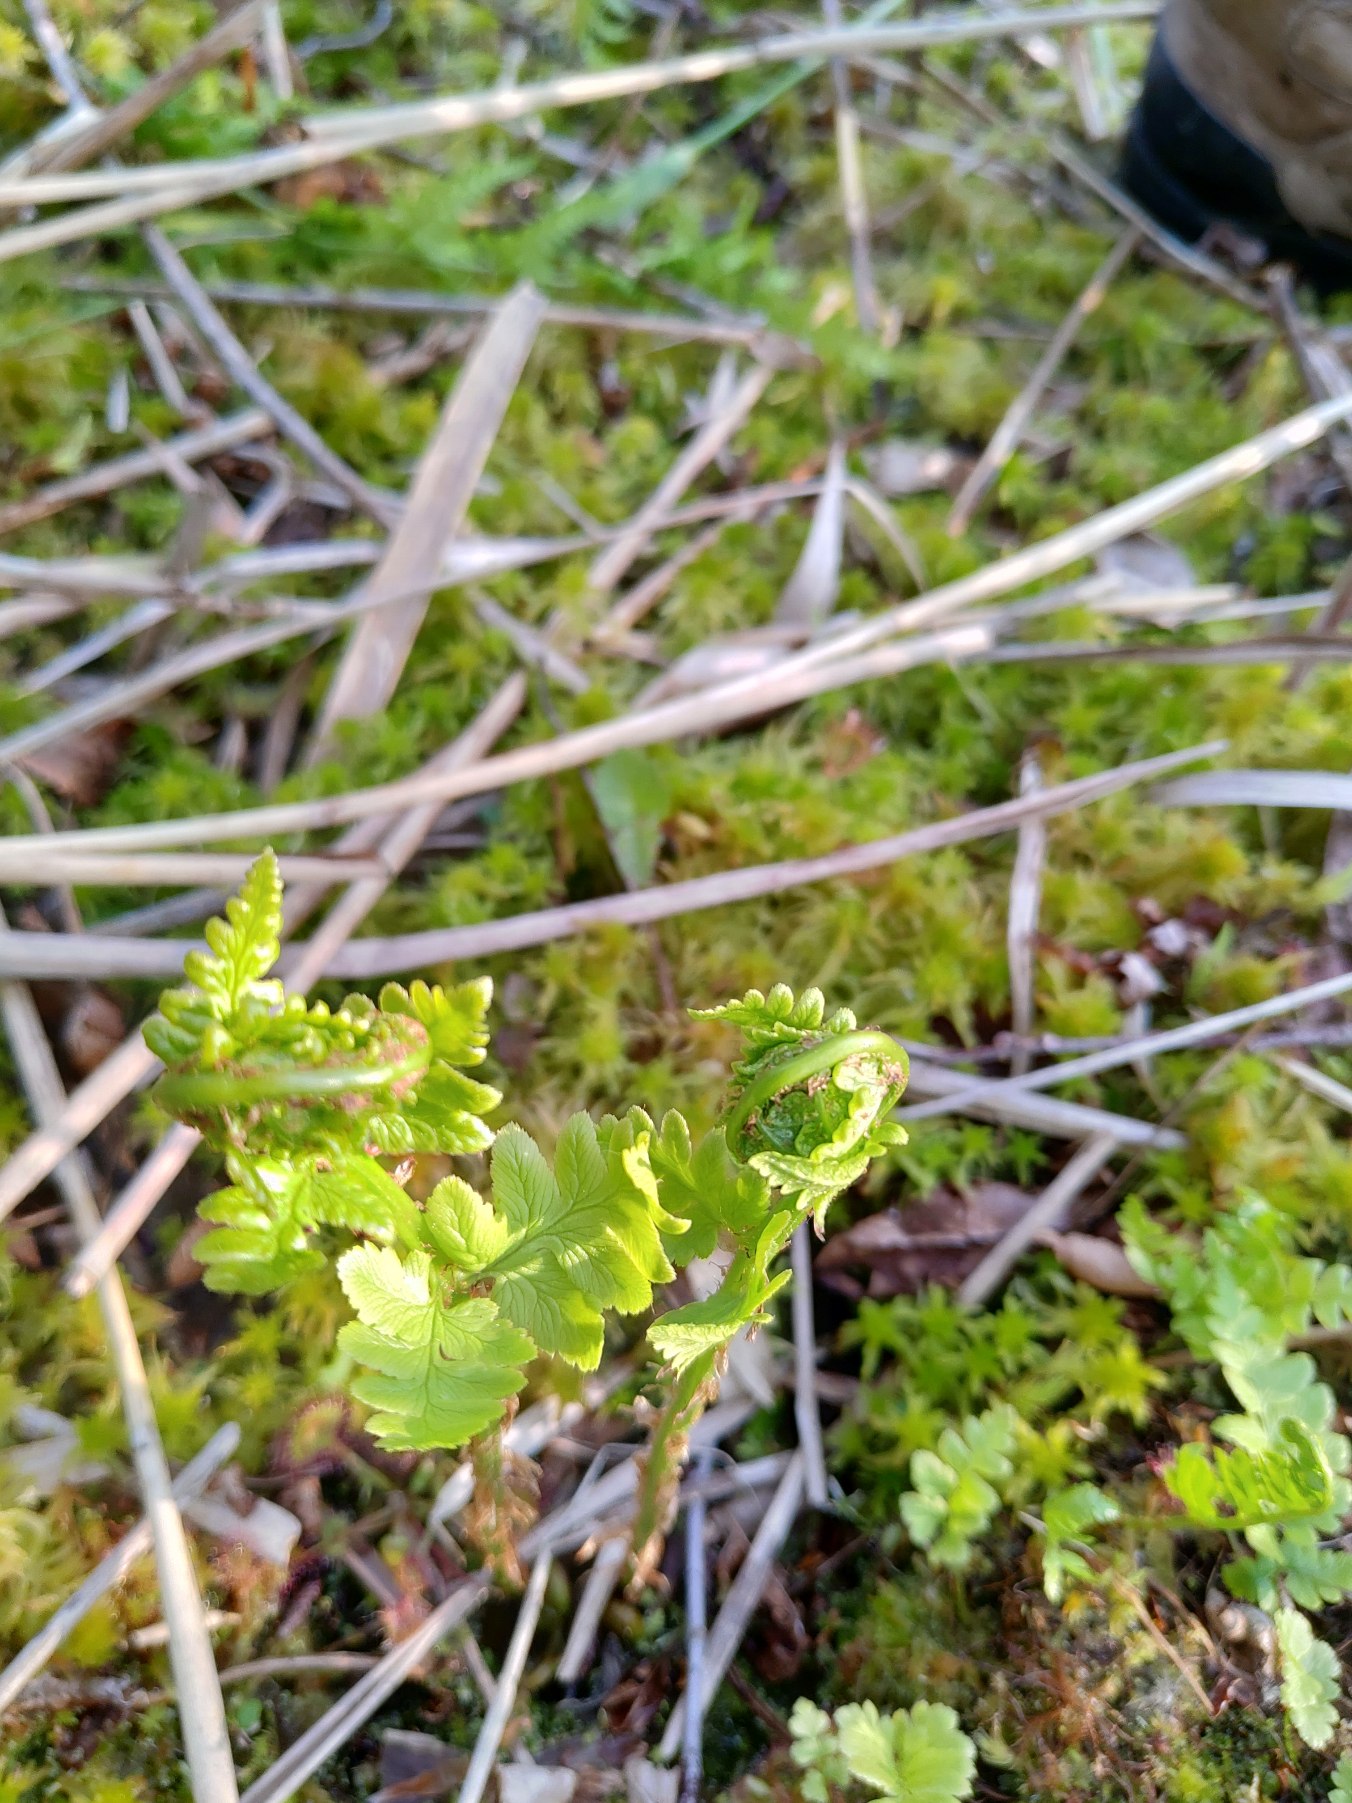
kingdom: Plantae
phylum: Tracheophyta
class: Polypodiopsida
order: Polypodiales
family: Dryopteridaceae
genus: Dryopteris
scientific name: Dryopteris cristata
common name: Butfinnet mangeløv
